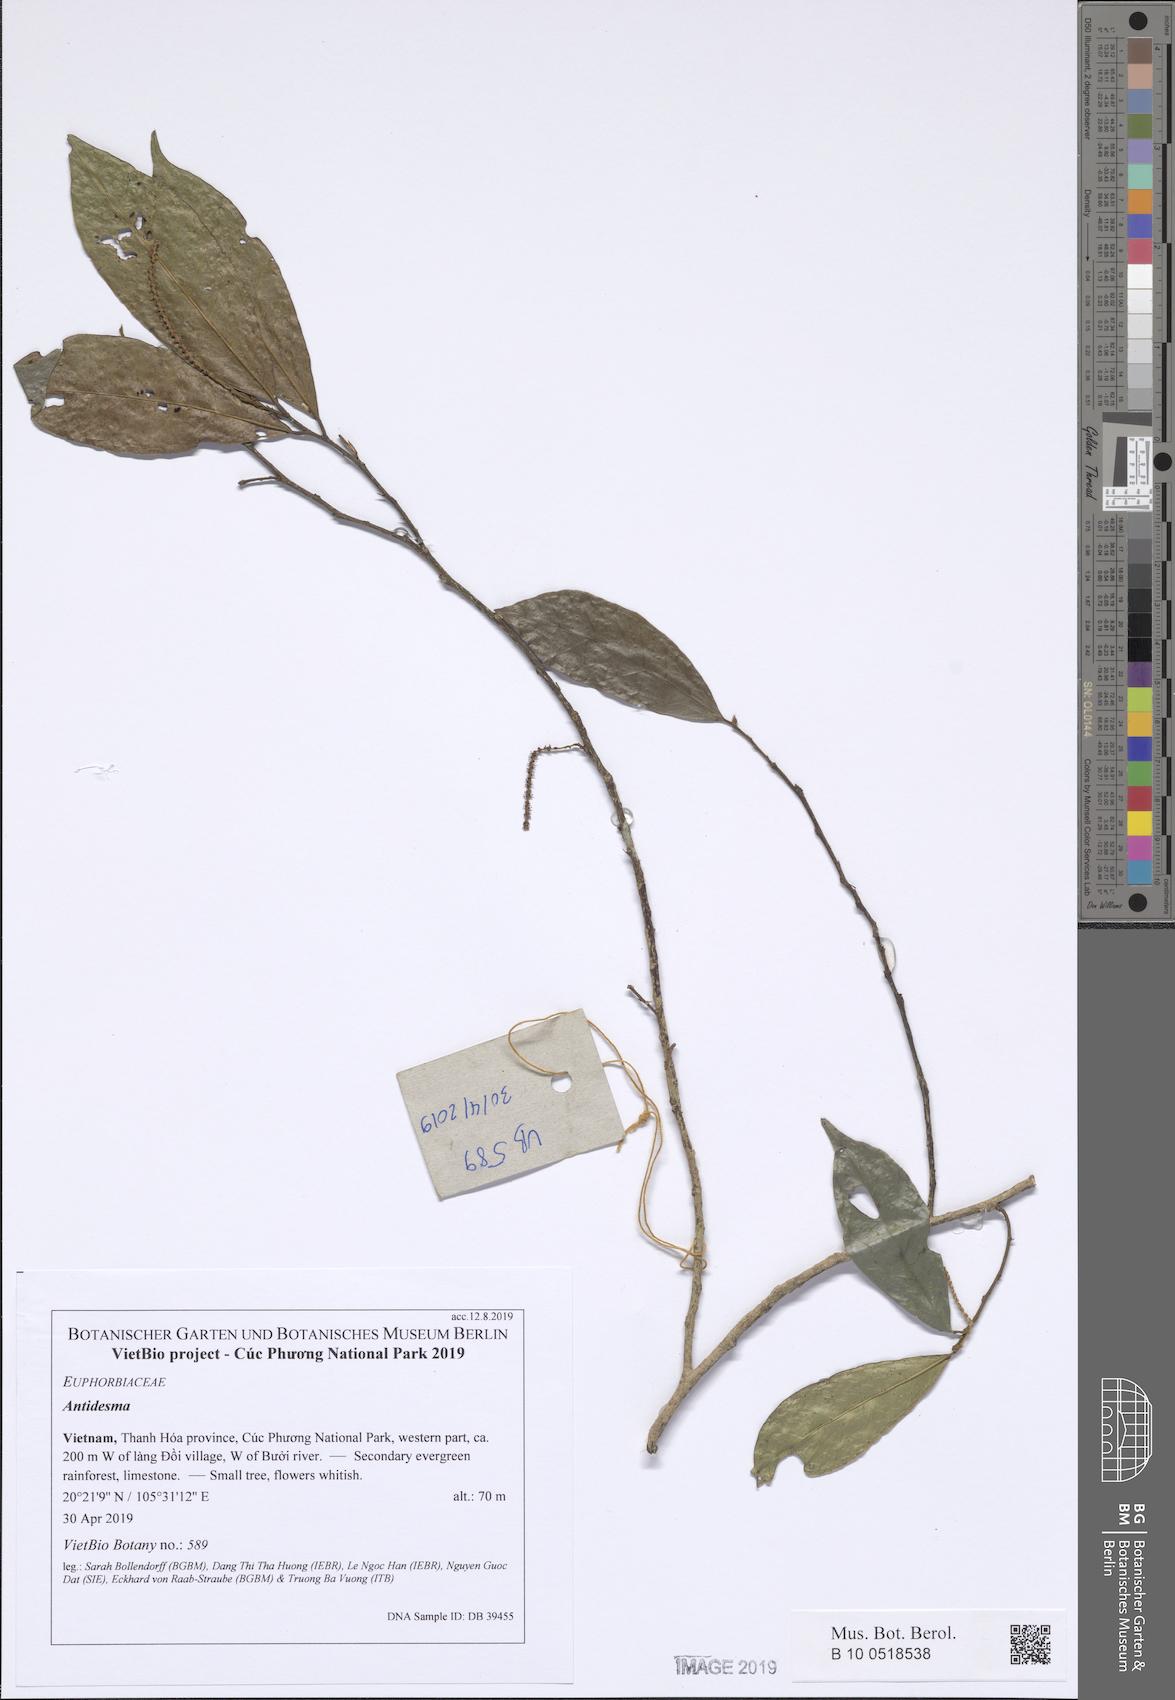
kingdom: Plantae
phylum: Tracheophyta
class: Magnoliopsida
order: Malpighiales
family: Phyllanthaceae
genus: Antidesma
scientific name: Antidesma ambiguum
